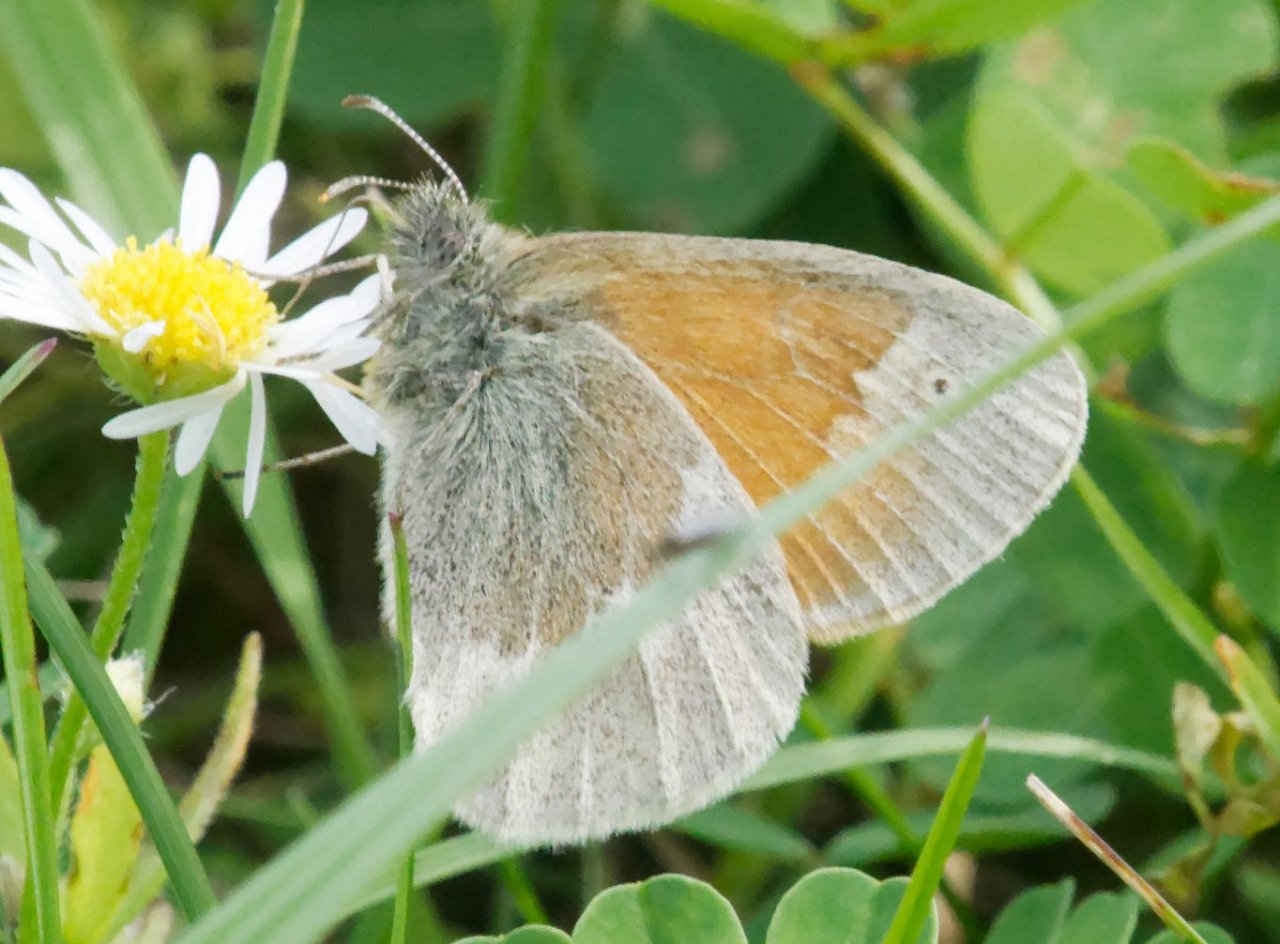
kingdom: Animalia
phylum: Arthropoda
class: Insecta
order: Lepidoptera
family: Nymphalidae
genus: Coenonympha
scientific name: Coenonympha tullia
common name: Large Heath
